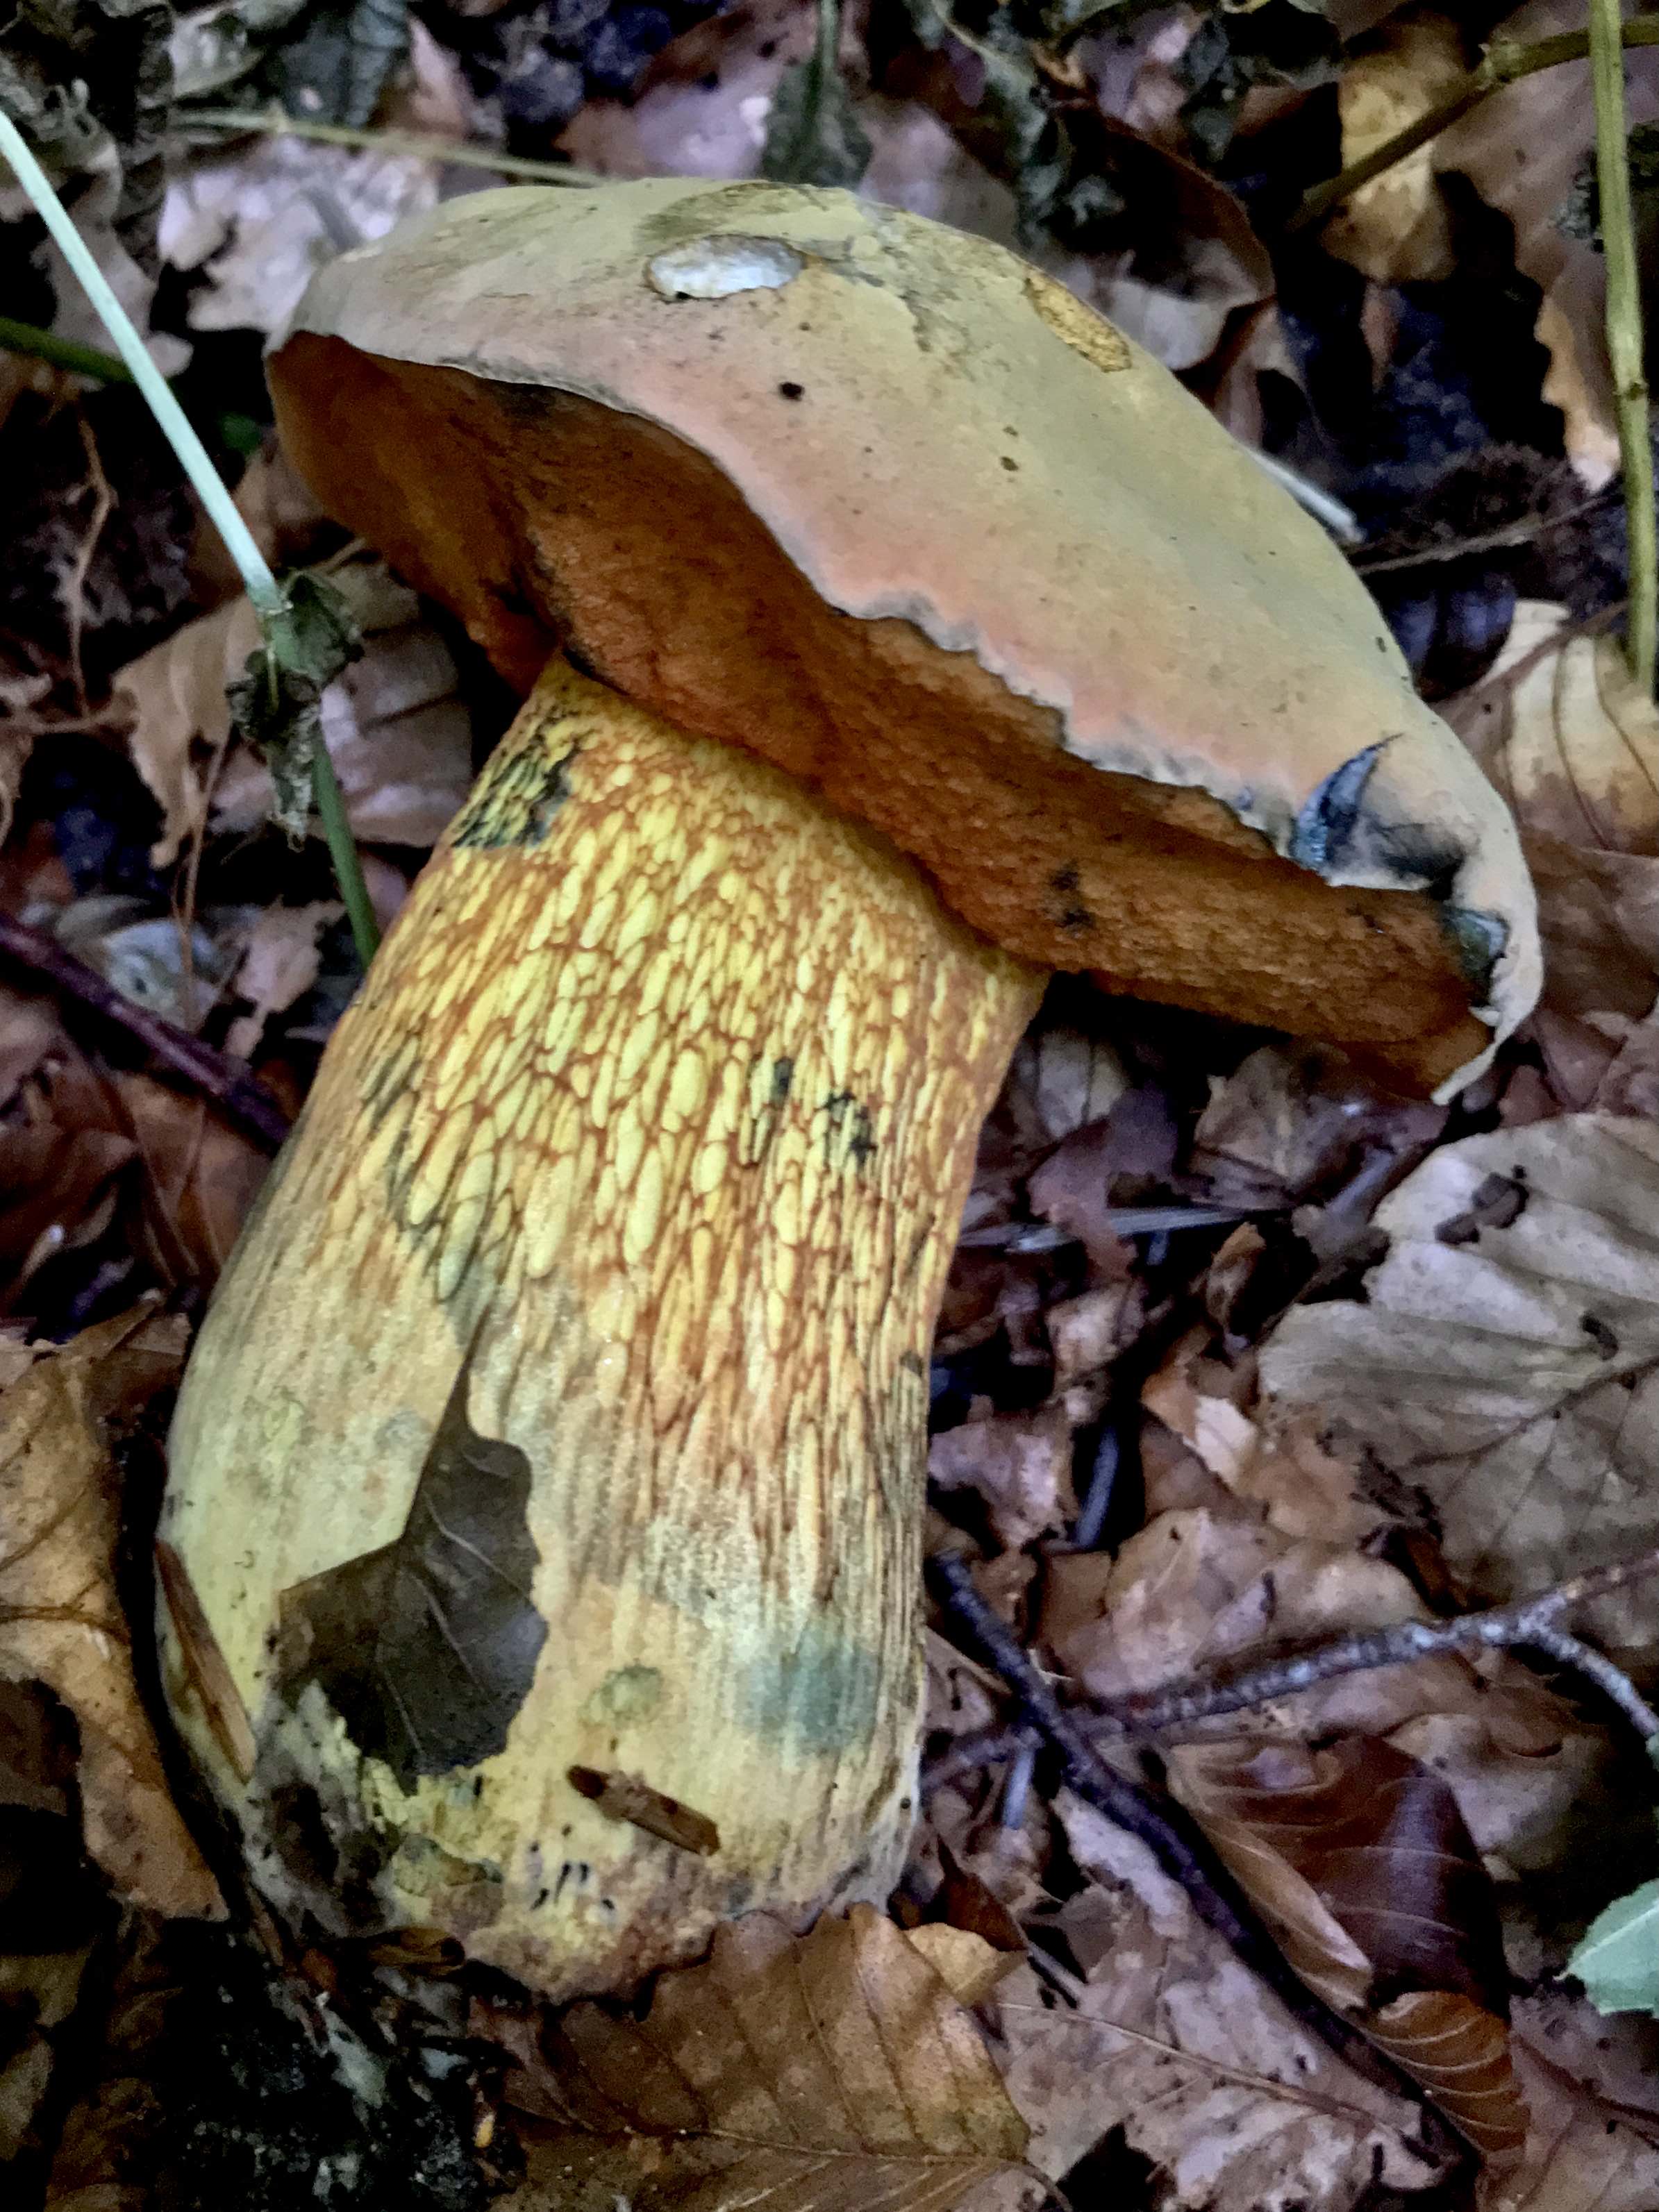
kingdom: Fungi
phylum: Basidiomycota
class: Agaricomycetes
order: Boletales
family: Boletaceae
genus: Suillellus
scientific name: Suillellus luridus
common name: netstokket indigorørhat
